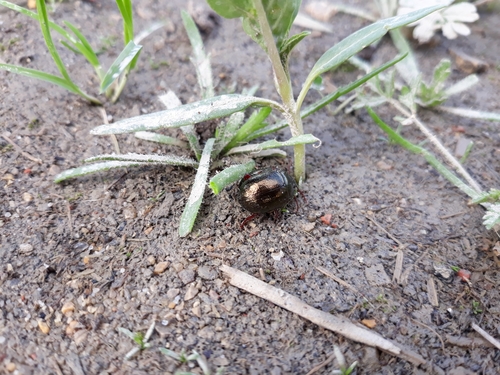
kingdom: Animalia
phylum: Arthropoda
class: Insecta
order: Coleoptera
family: Chrysomelidae
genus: Chrysolina
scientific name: Chrysolina bankii
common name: Leaf beetle
